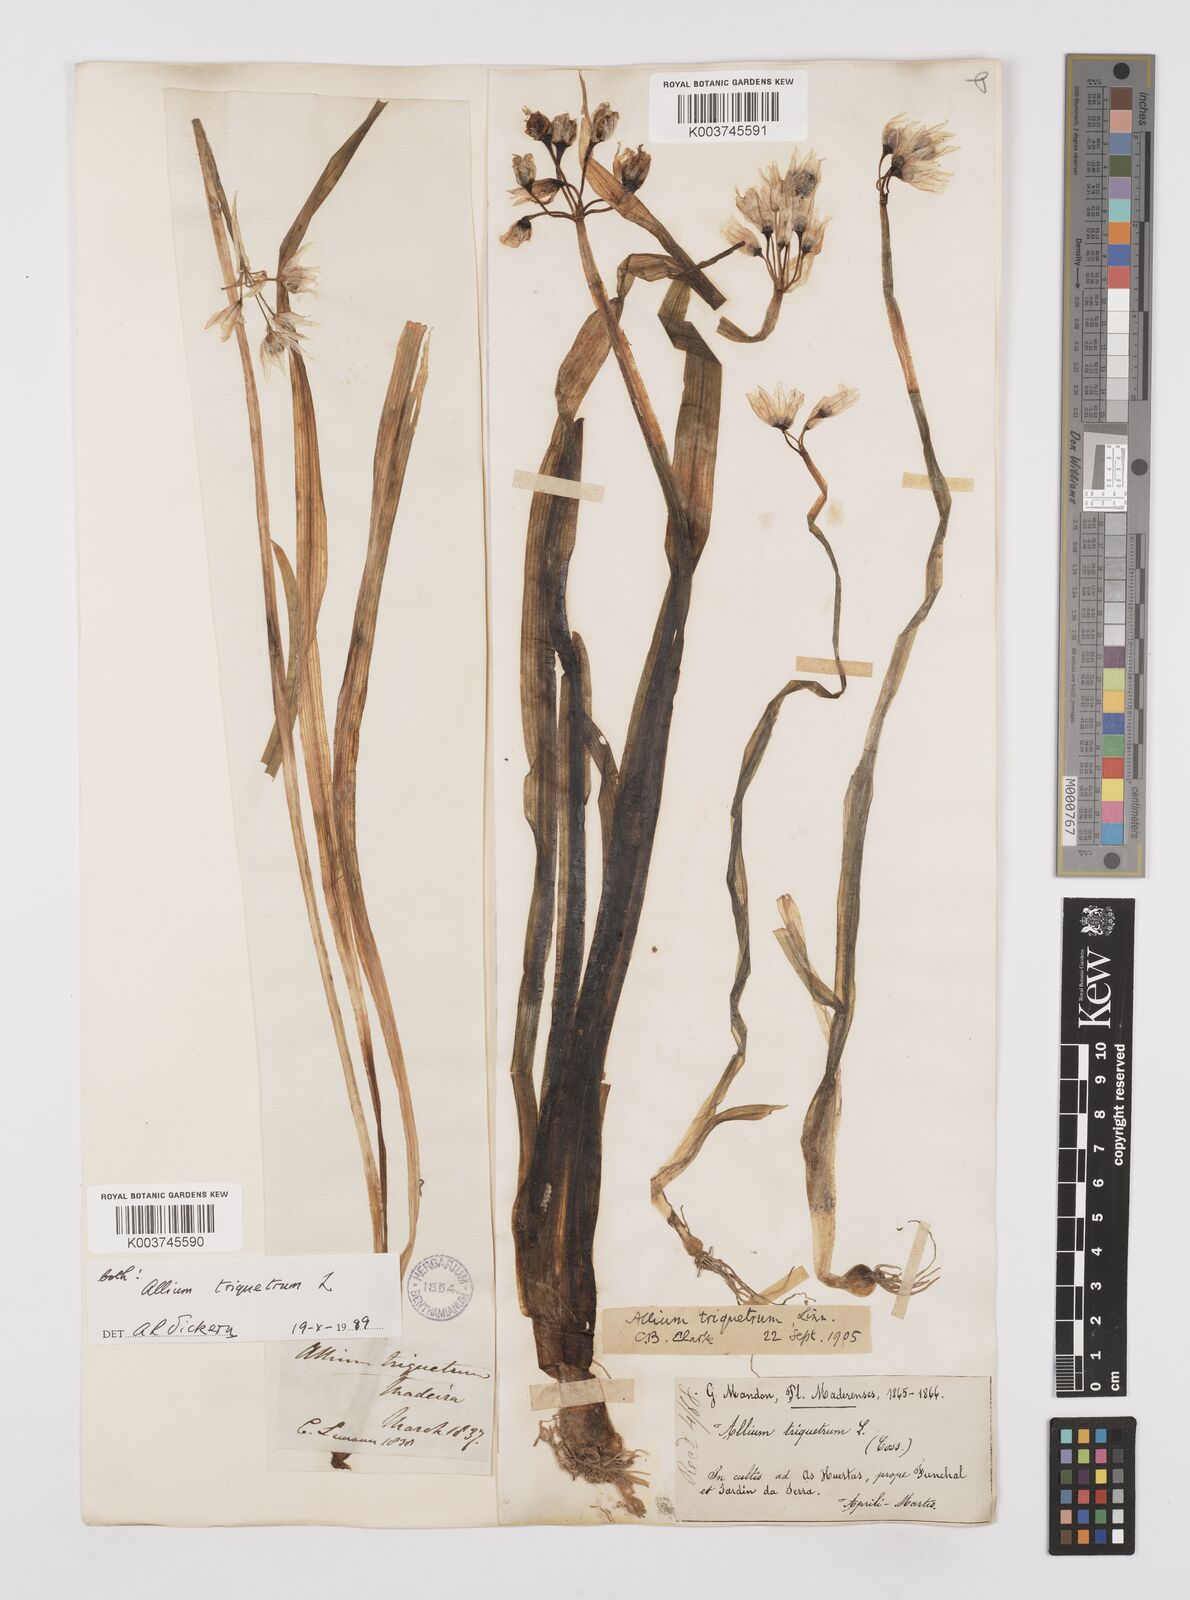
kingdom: Plantae
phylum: Tracheophyta
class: Liliopsida
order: Asparagales
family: Amaryllidaceae
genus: Allium
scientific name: Allium triquetrum
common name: Three-cornered garlic
